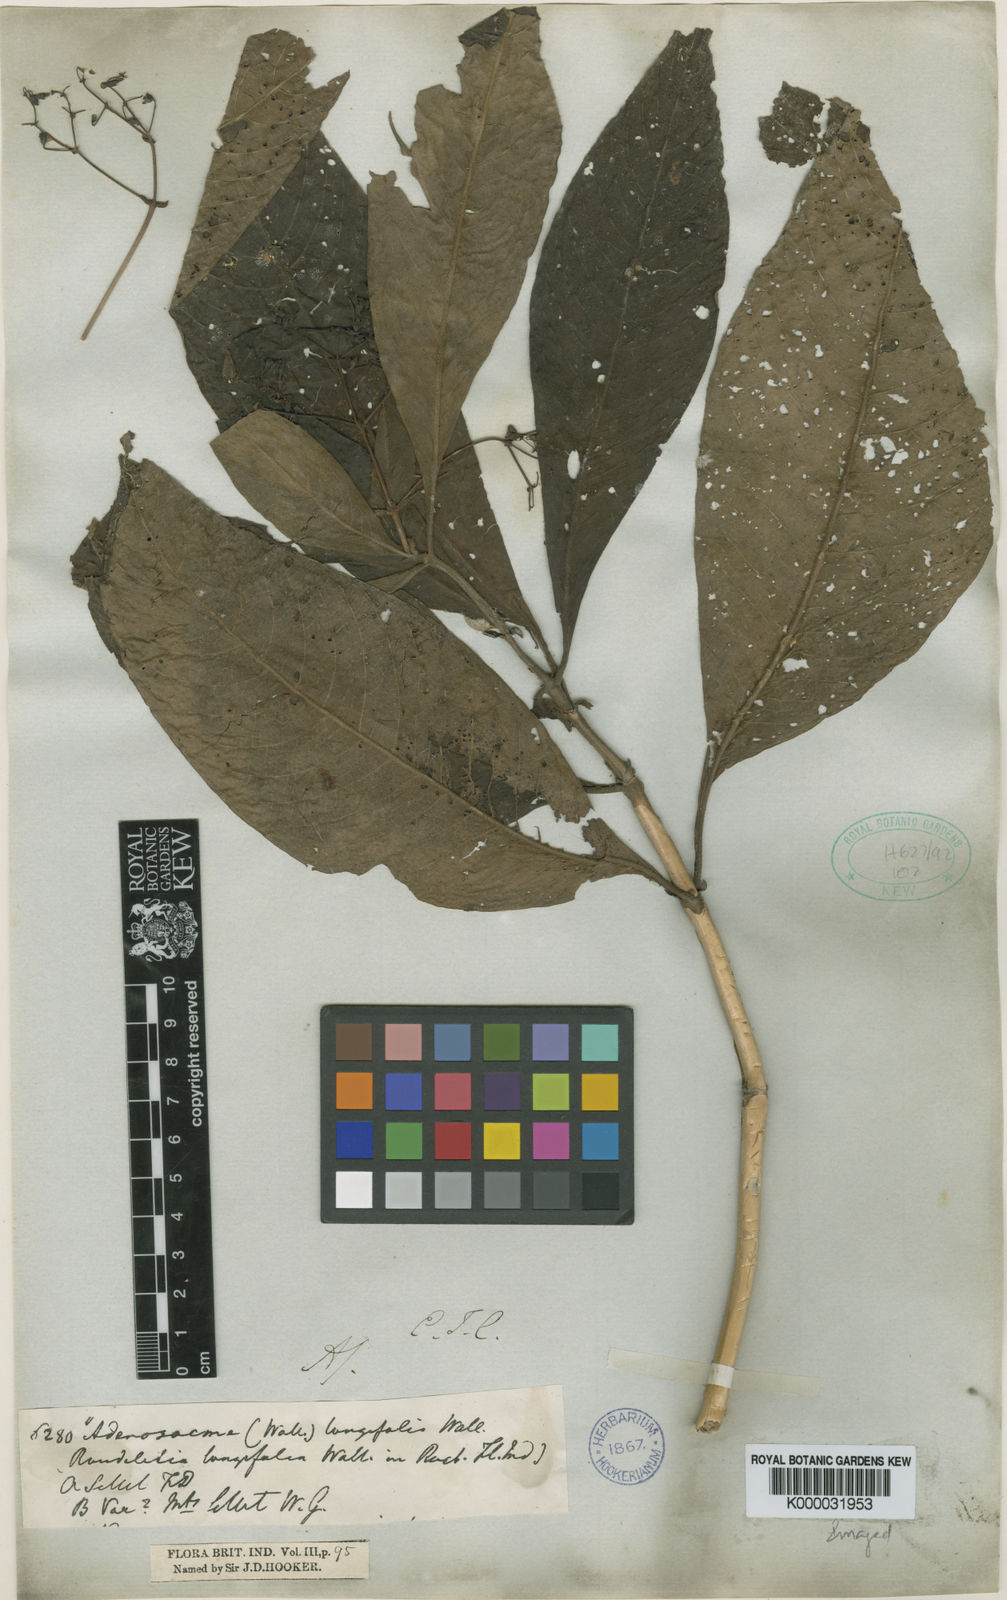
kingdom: Plantae
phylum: Tracheophyta
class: Magnoliopsida
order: Gentianales
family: Rubiaceae
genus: Mycetia
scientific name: Mycetia longifolia
